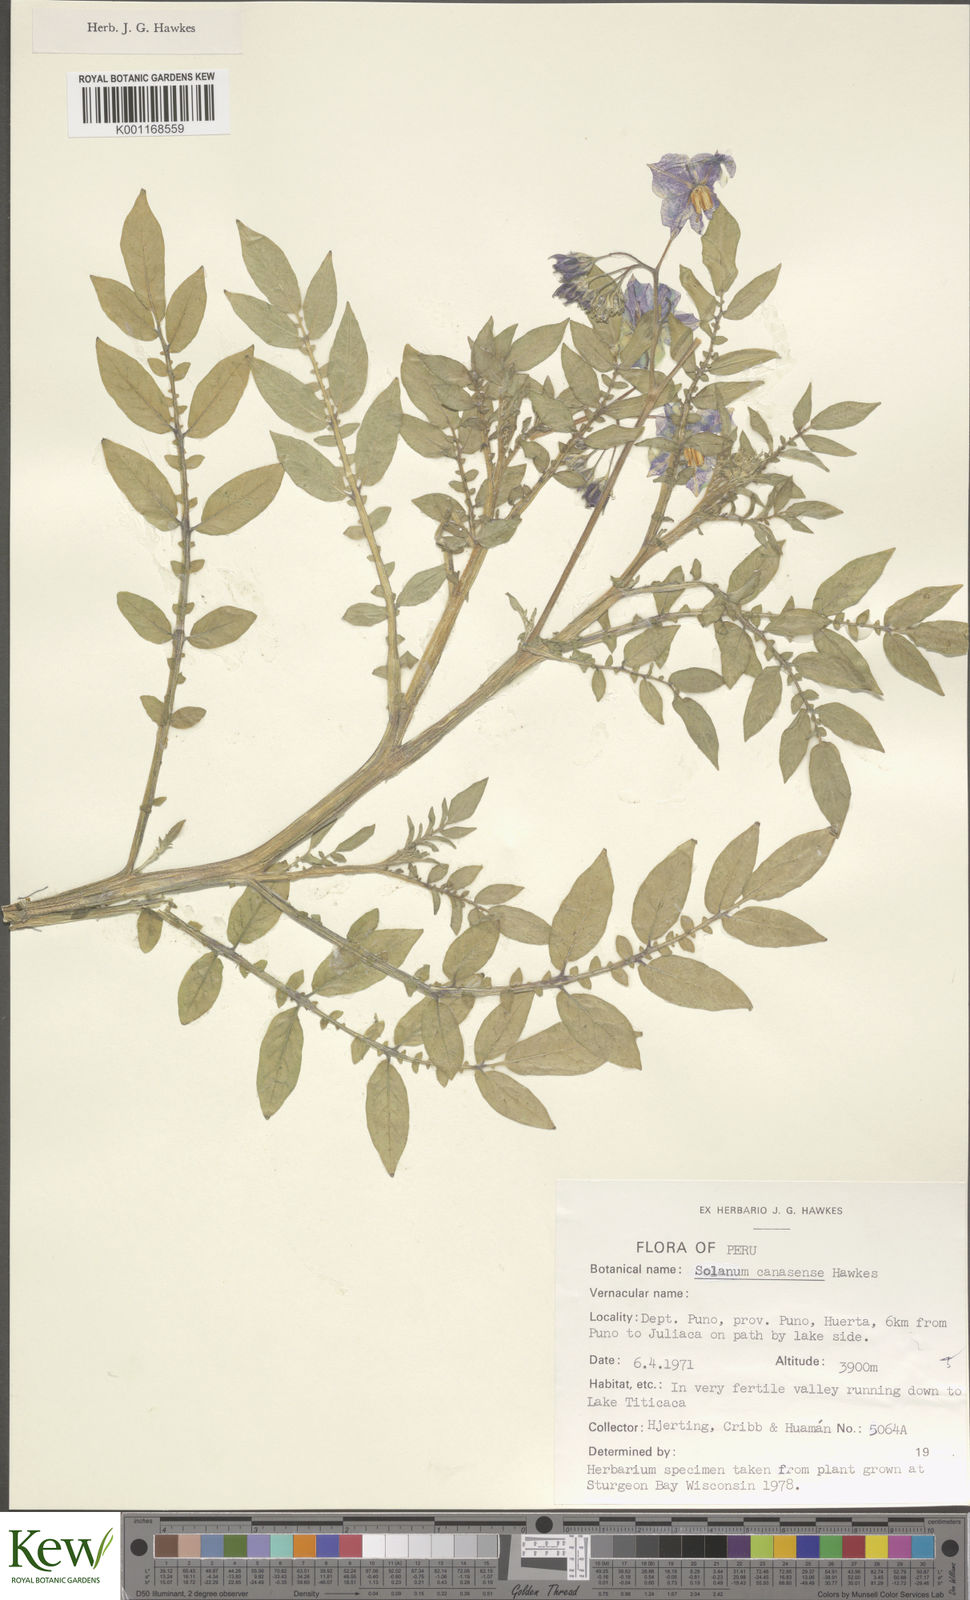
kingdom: Plantae
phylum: Tracheophyta
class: Magnoliopsida
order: Solanales
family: Solanaceae
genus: Solanum
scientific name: Solanum candolleanum
